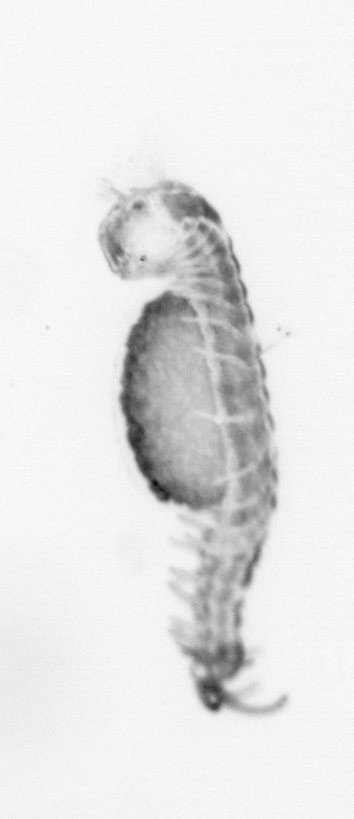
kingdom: Animalia
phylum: Annelida
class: Polychaeta
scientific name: Polychaeta
